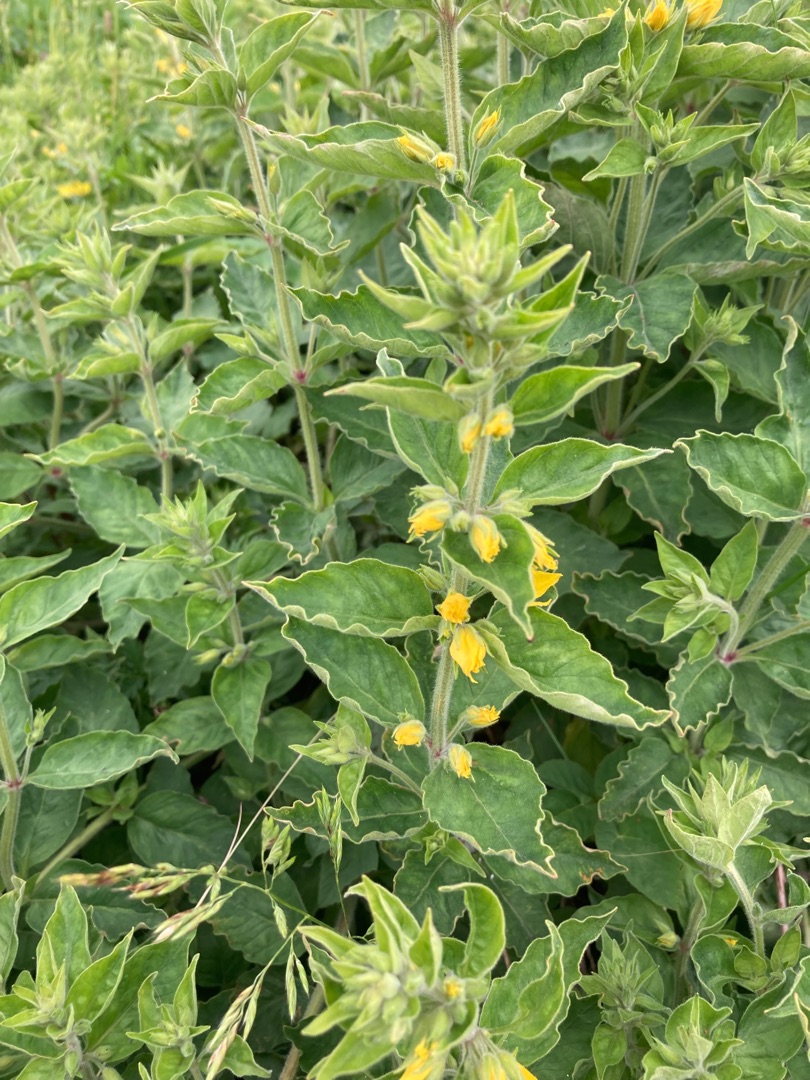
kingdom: Plantae
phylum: Tracheophyta
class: Magnoliopsida
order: Ericales
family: Primulaceae
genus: Lysimachia
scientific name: Lysimachia punctata
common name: Prikbladet fredløs
